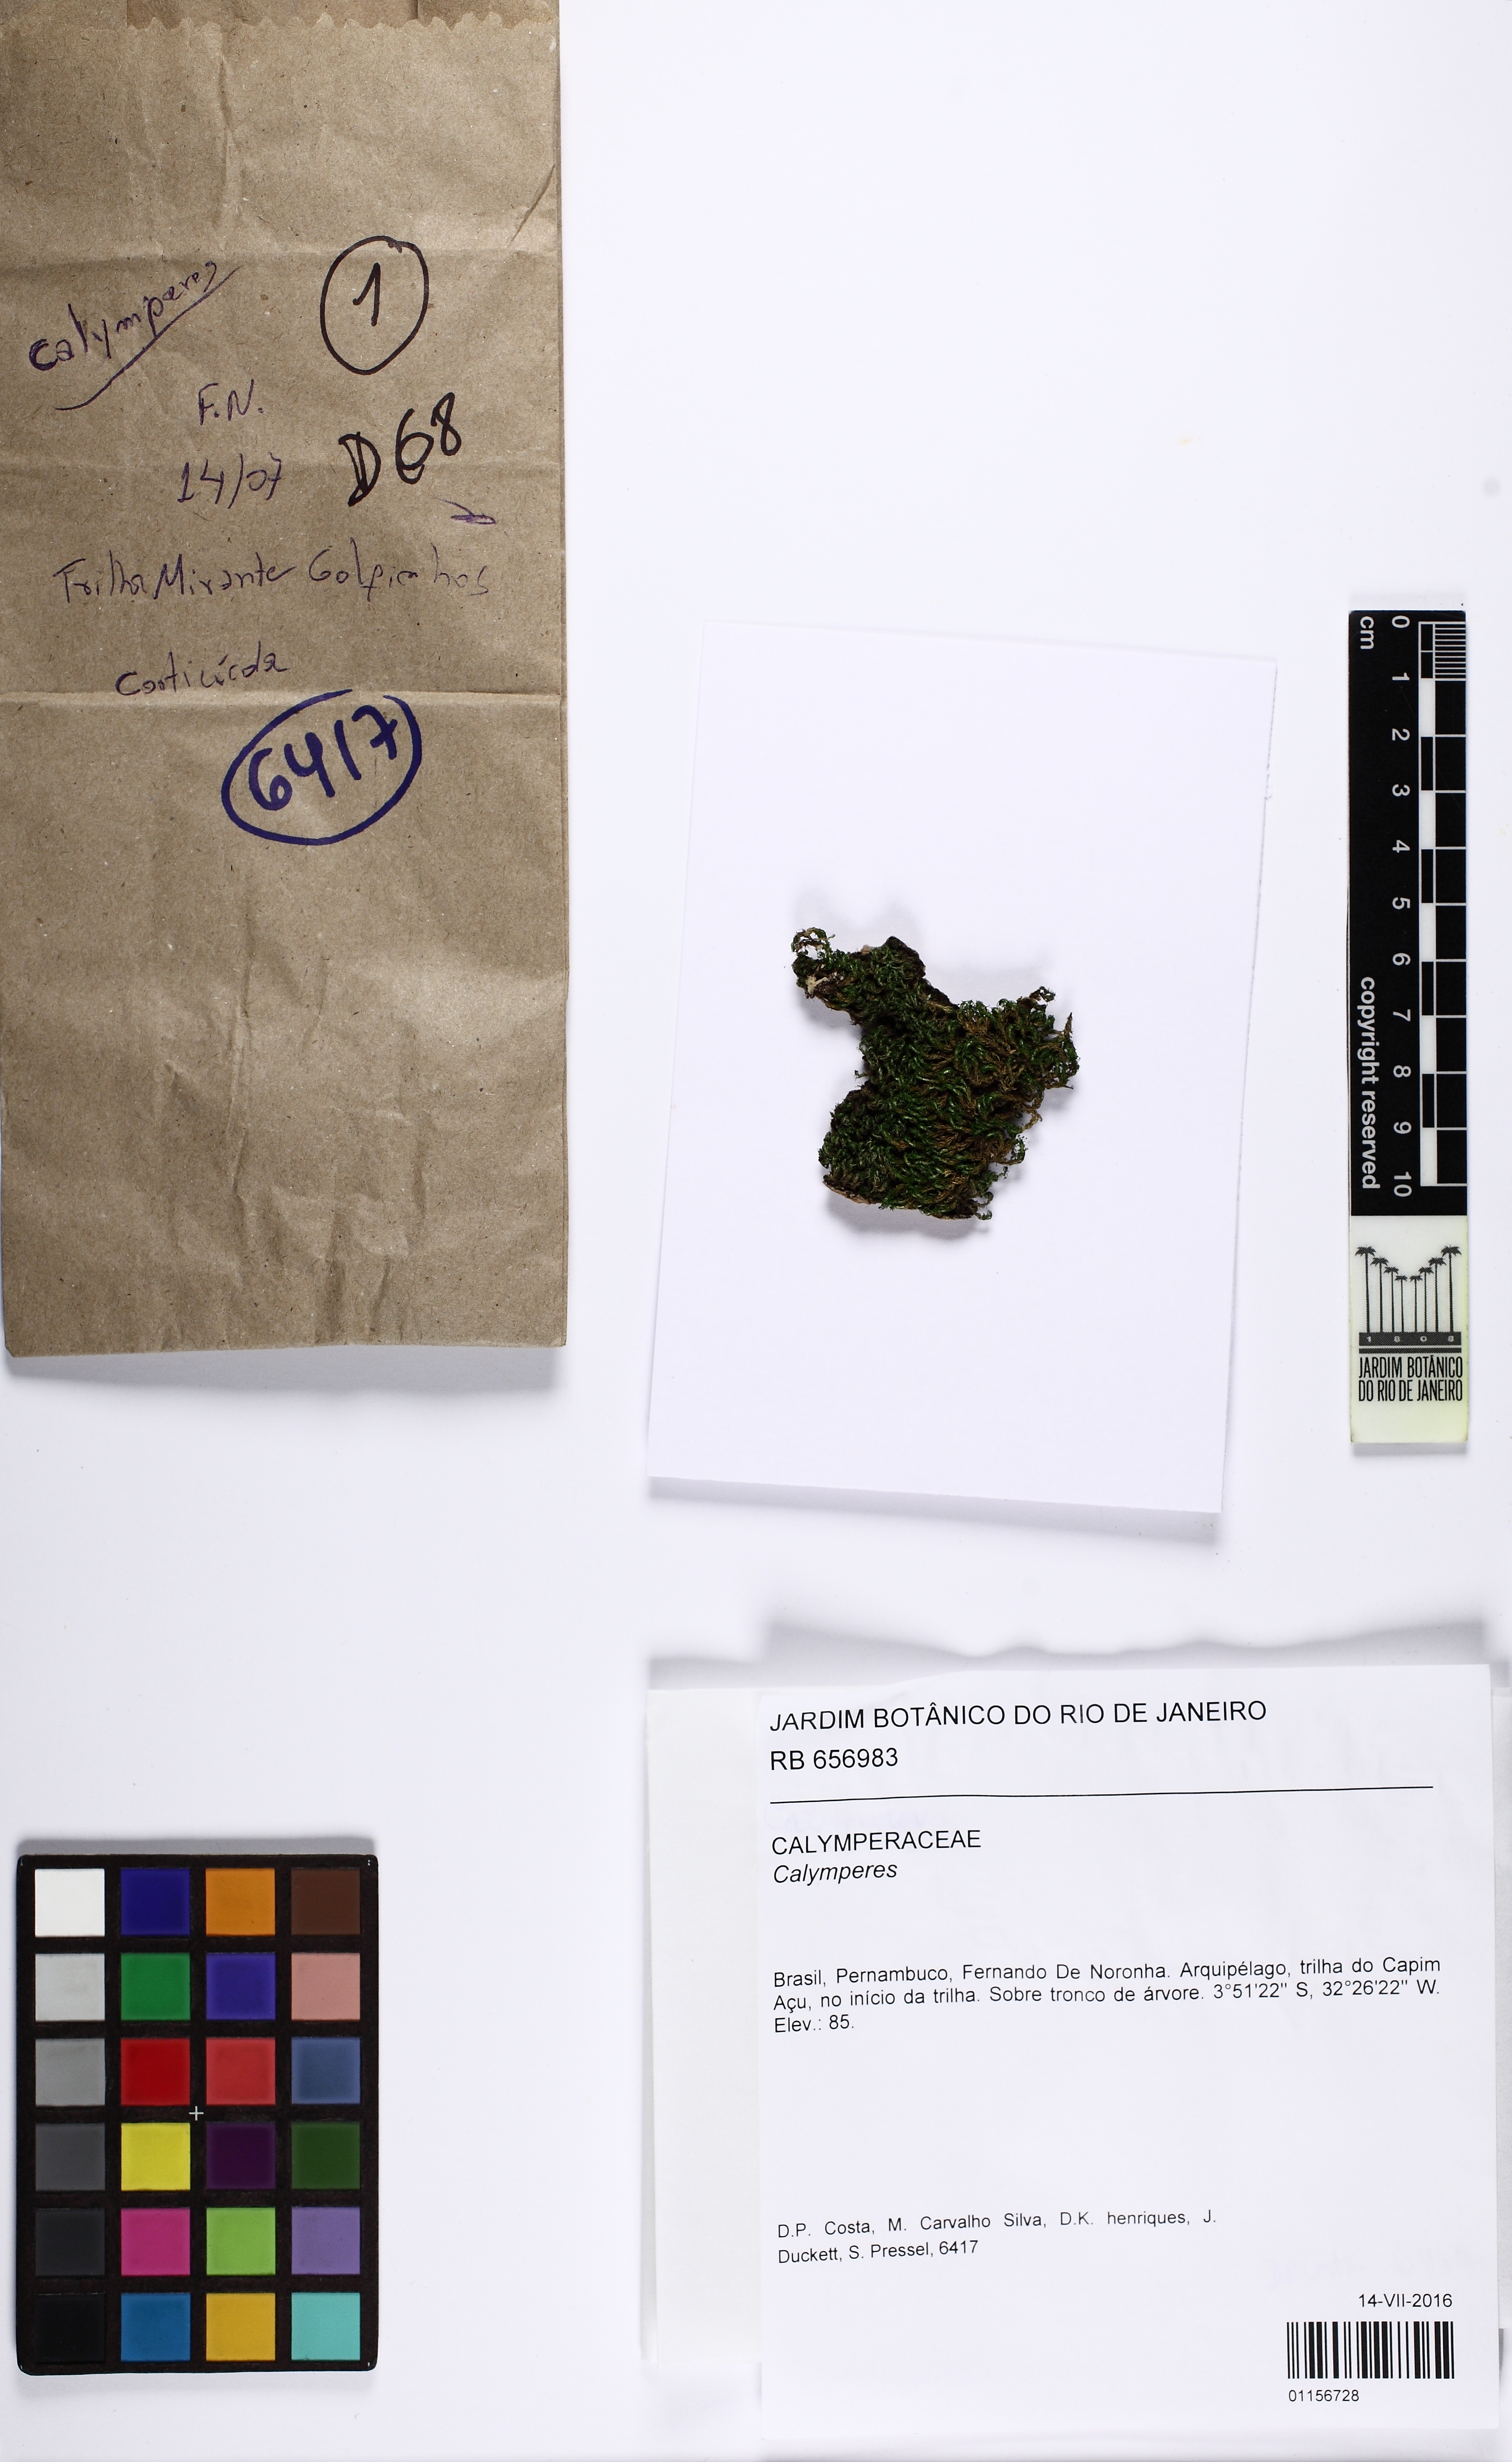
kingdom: Plantae
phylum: Bryophyta
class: Bryopsida
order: Dicranales
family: Calymperaceae
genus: Calymperes
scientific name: Calymperes
